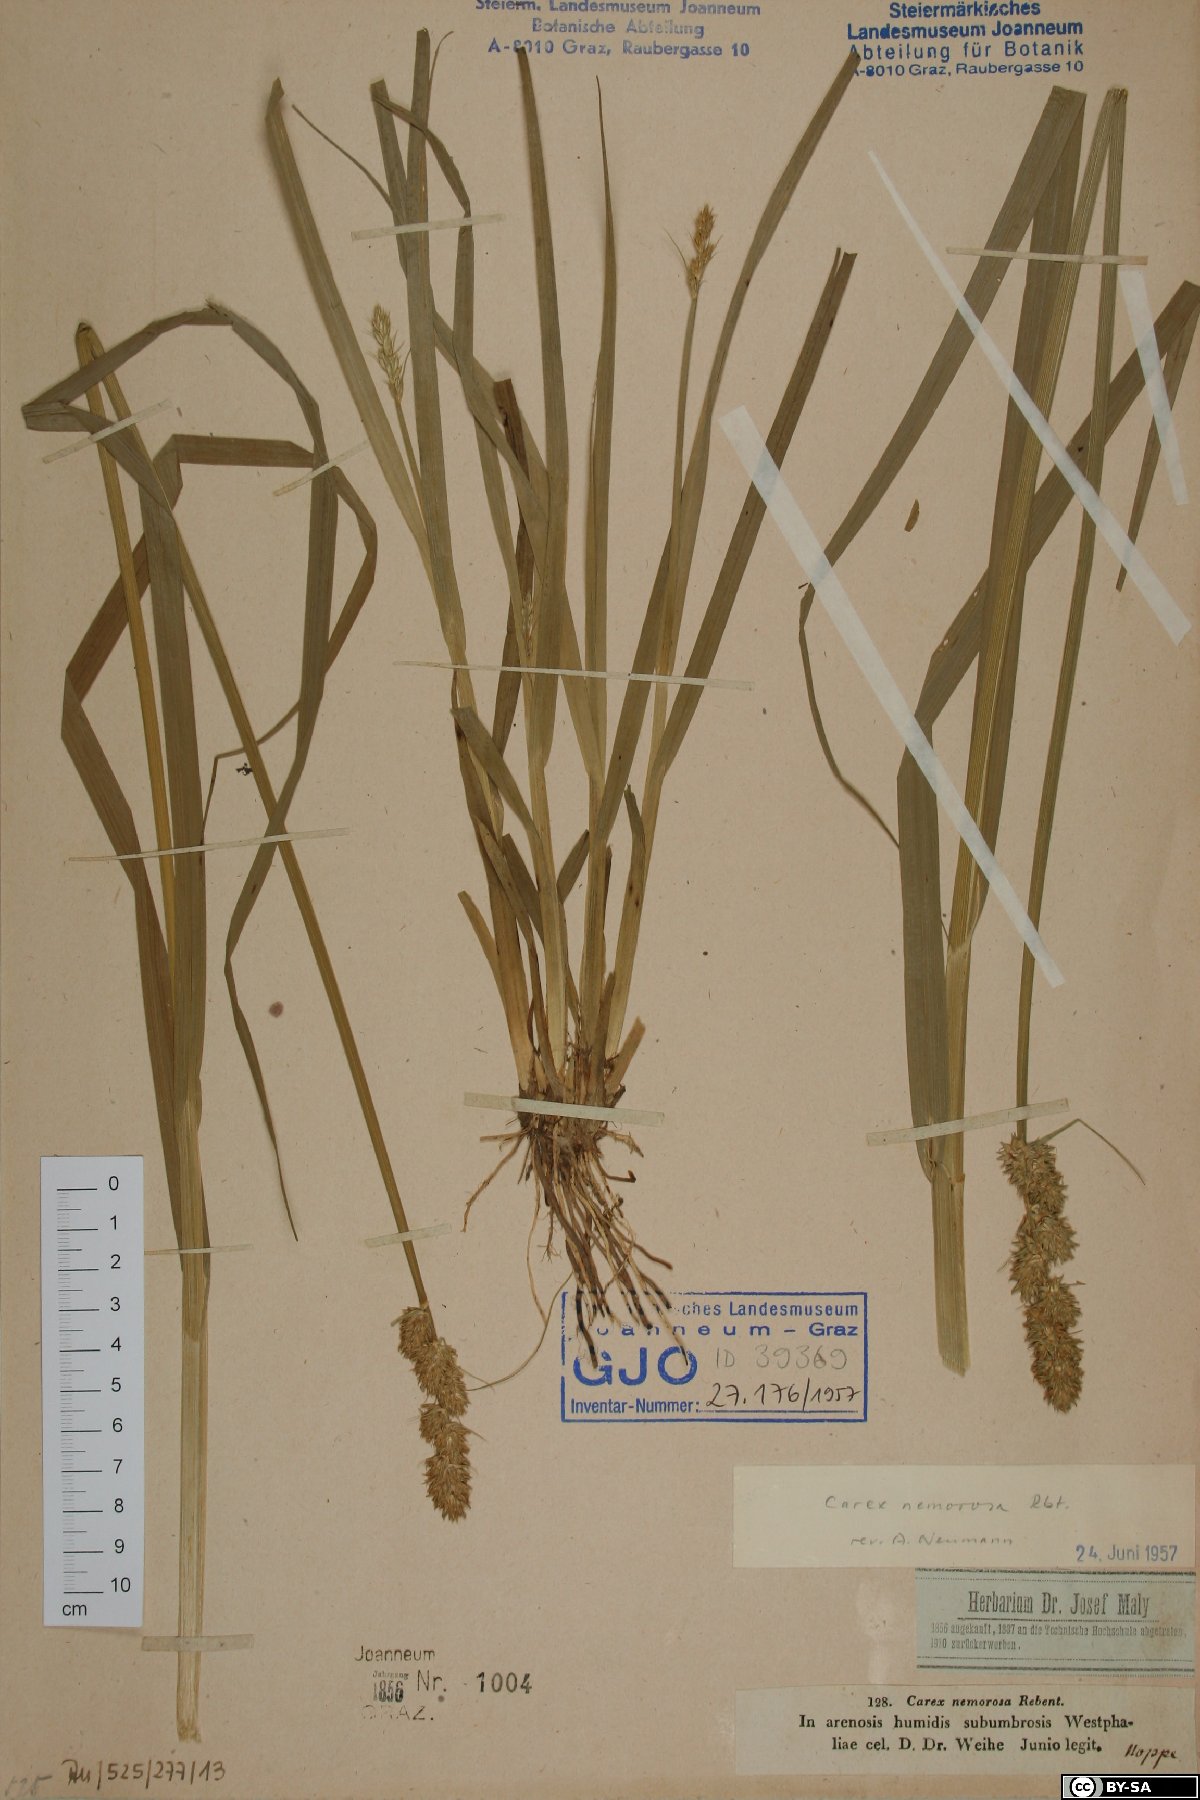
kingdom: Plantae
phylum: Tracheophyta
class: Liliopsida
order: Poales
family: Cyperaceae
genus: Carex
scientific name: Carex otrubae
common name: False fox-sedge
